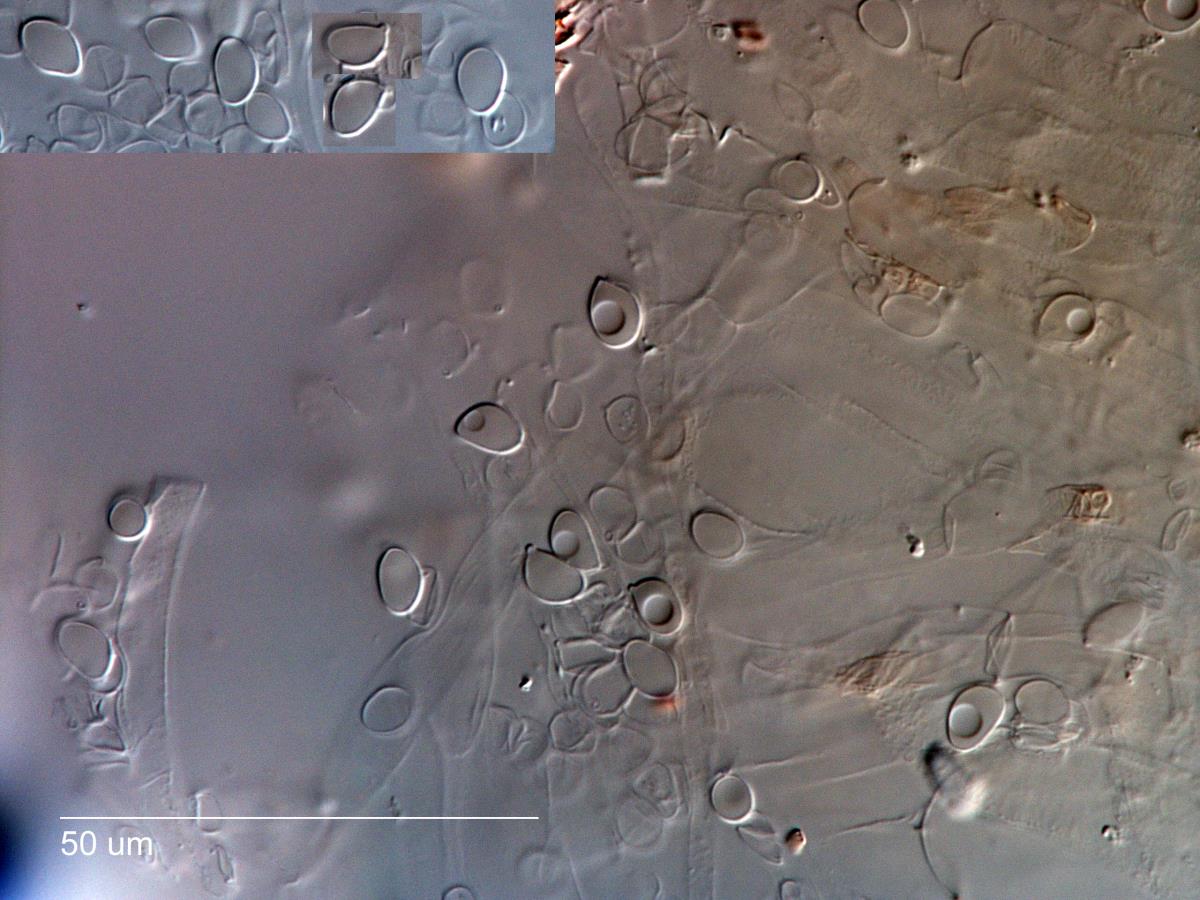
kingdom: Fungi
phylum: Basidiomycota
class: Agaricomycetes
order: Agaricales
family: Mycenaceae
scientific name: Mycenaceae
